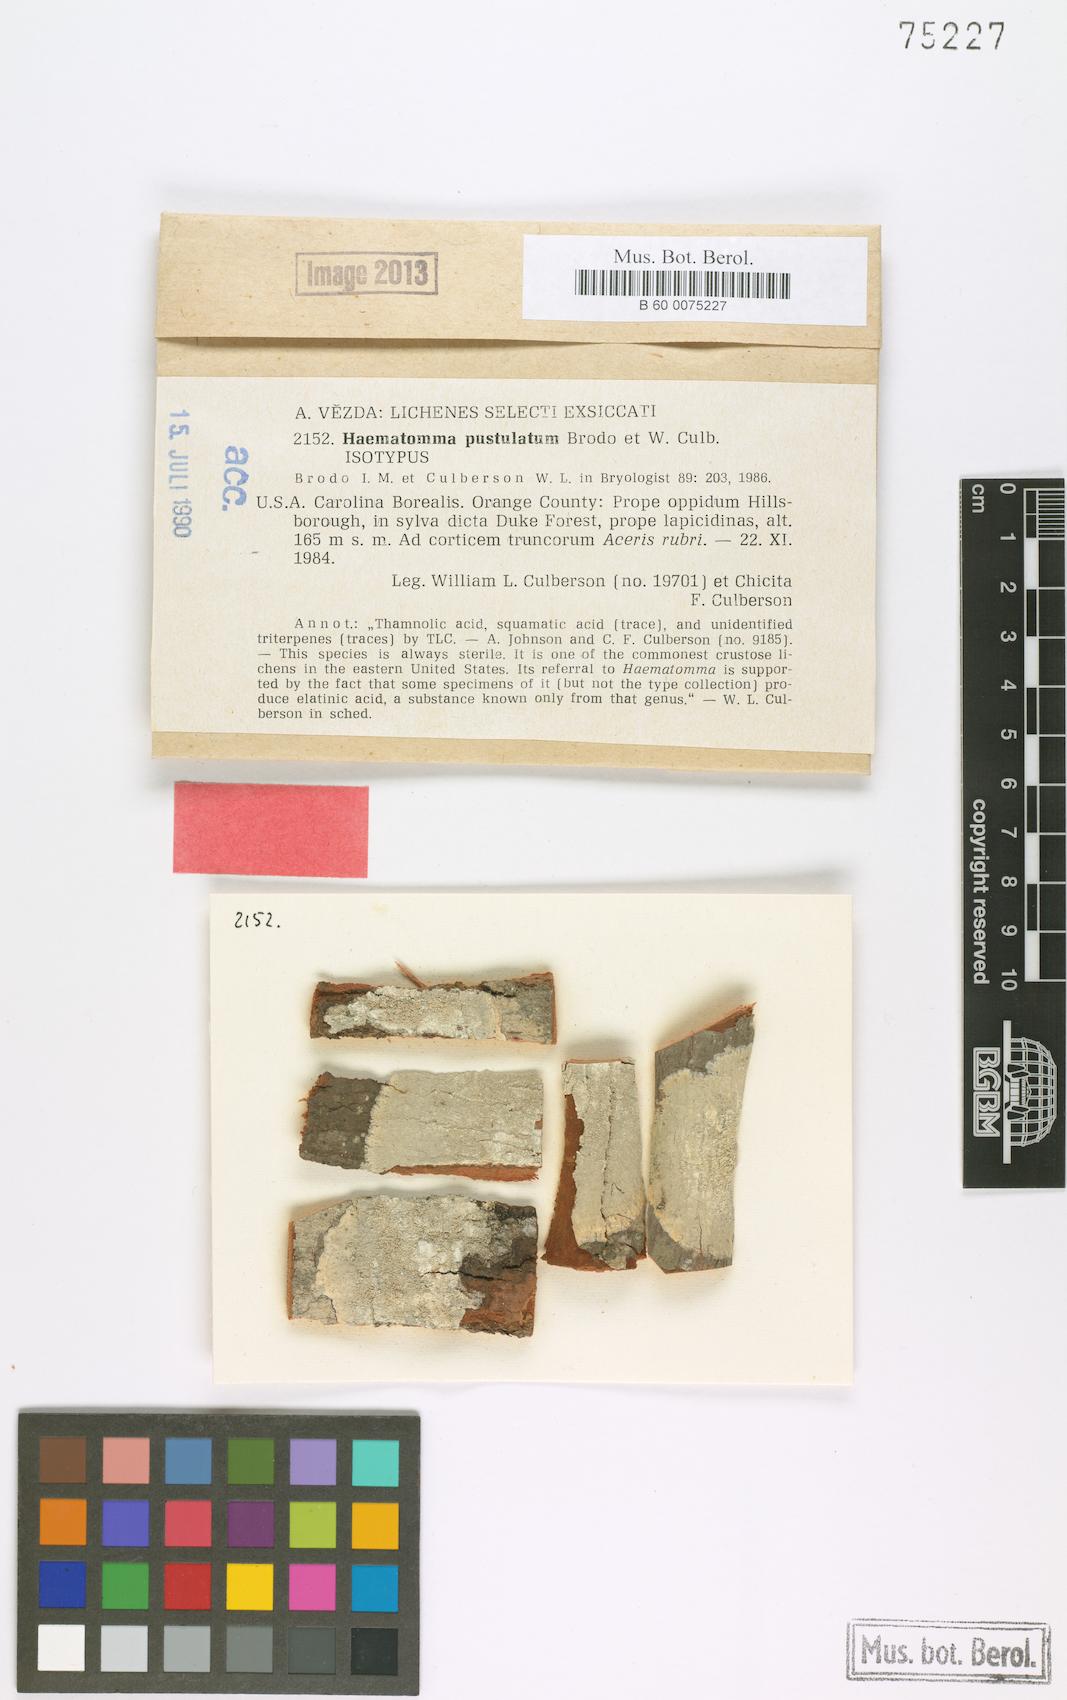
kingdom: Fungi
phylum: Ascomycota
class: Lecanoromycetes
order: Pertusariales
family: Pertusariaceae
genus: Lepra
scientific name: Lepra pustulata
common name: Pustule crust lichen
